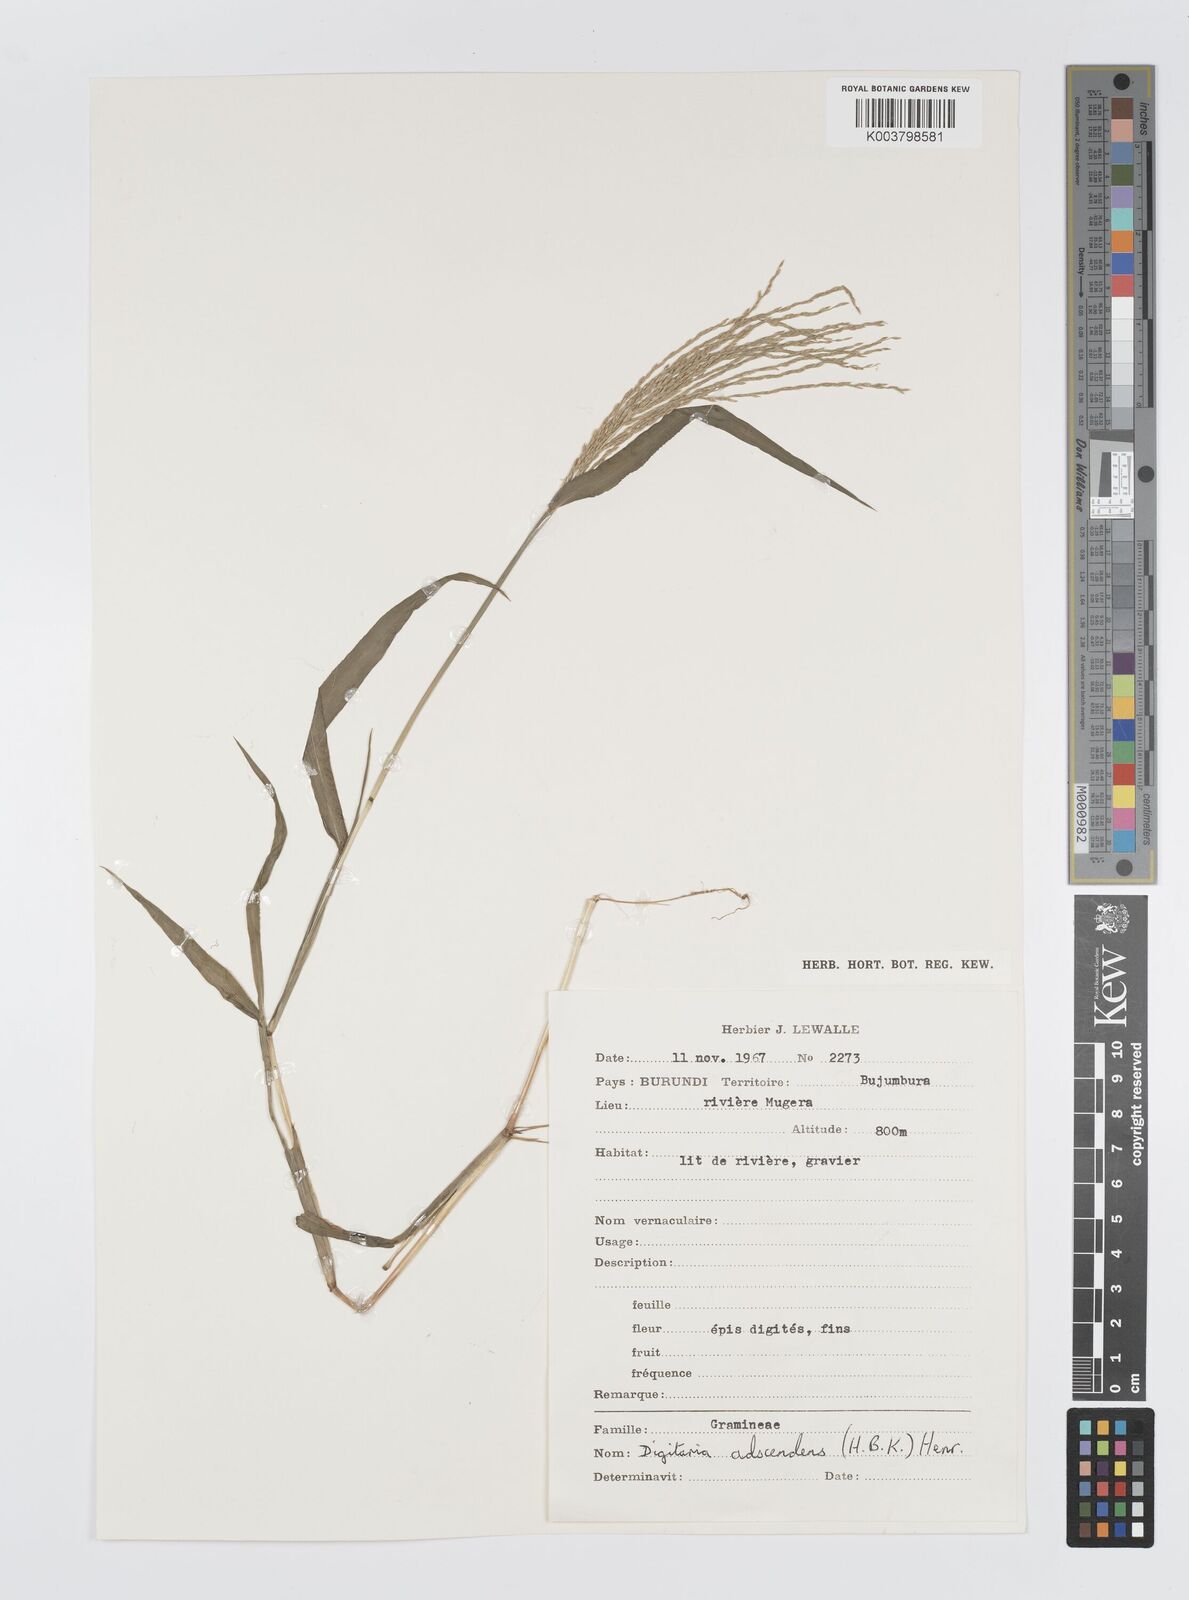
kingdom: Plantae
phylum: Tracheophyta
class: Liliopsida
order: Poales
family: Poaceae
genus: Digitaria
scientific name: Digitaria nuda
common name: Naked crabgrass
